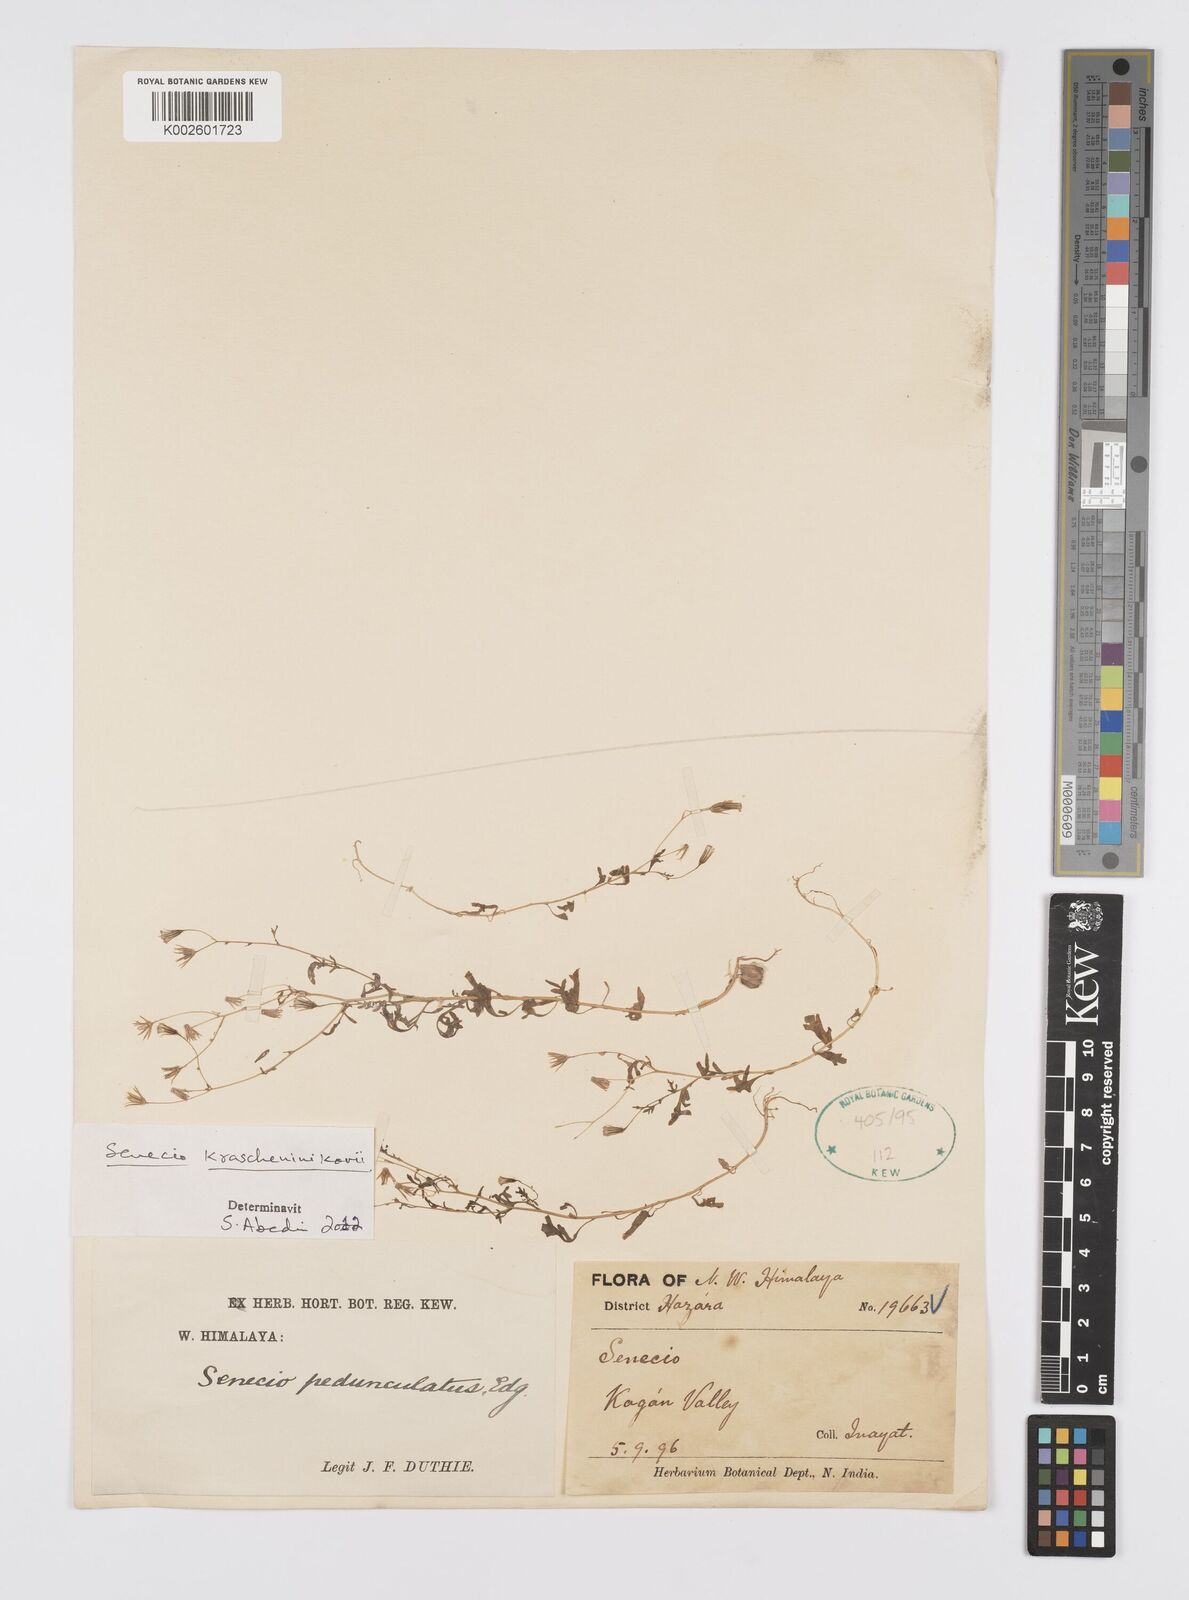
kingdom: Plantae
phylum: Tracheophyta
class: Magnoliopsida
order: Asterales
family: Asteraceae
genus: Senecio
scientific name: Senecio krascheninnikovii
